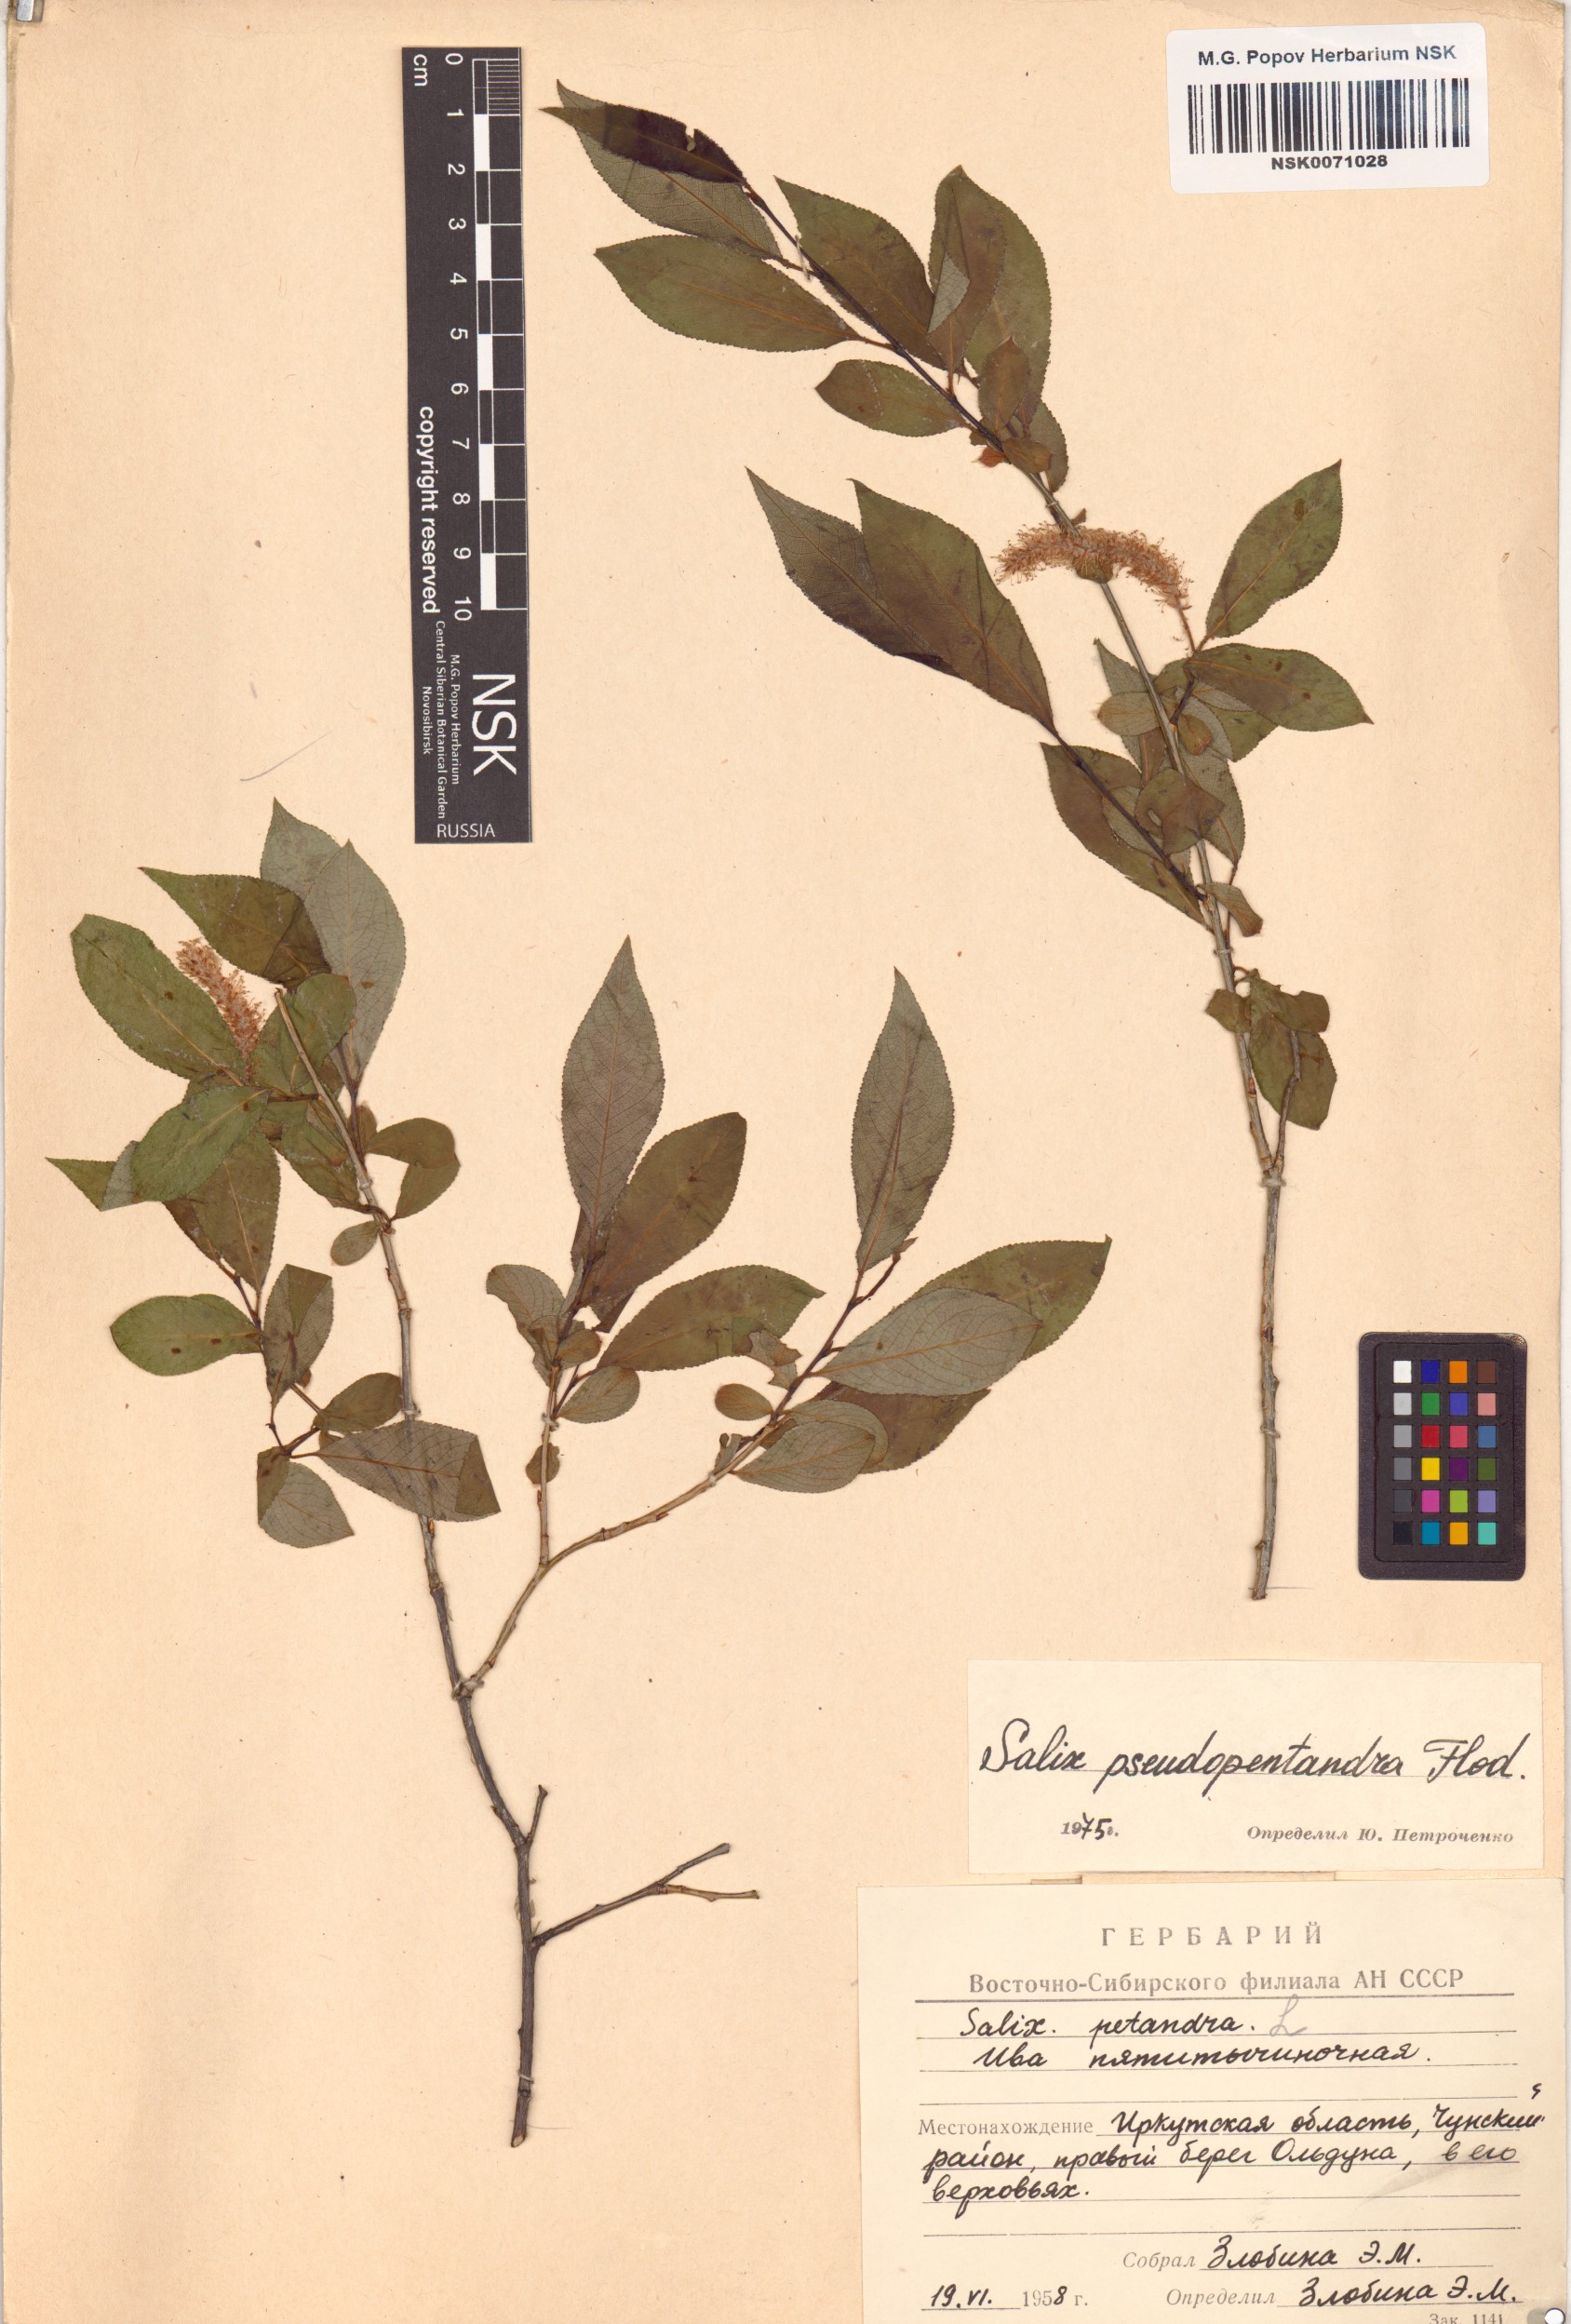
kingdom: Plantae
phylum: Tracheophyta
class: Magnoliopsida
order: Malpighiales
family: Salicaceae
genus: Salix
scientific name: Salix pseudopentandra
